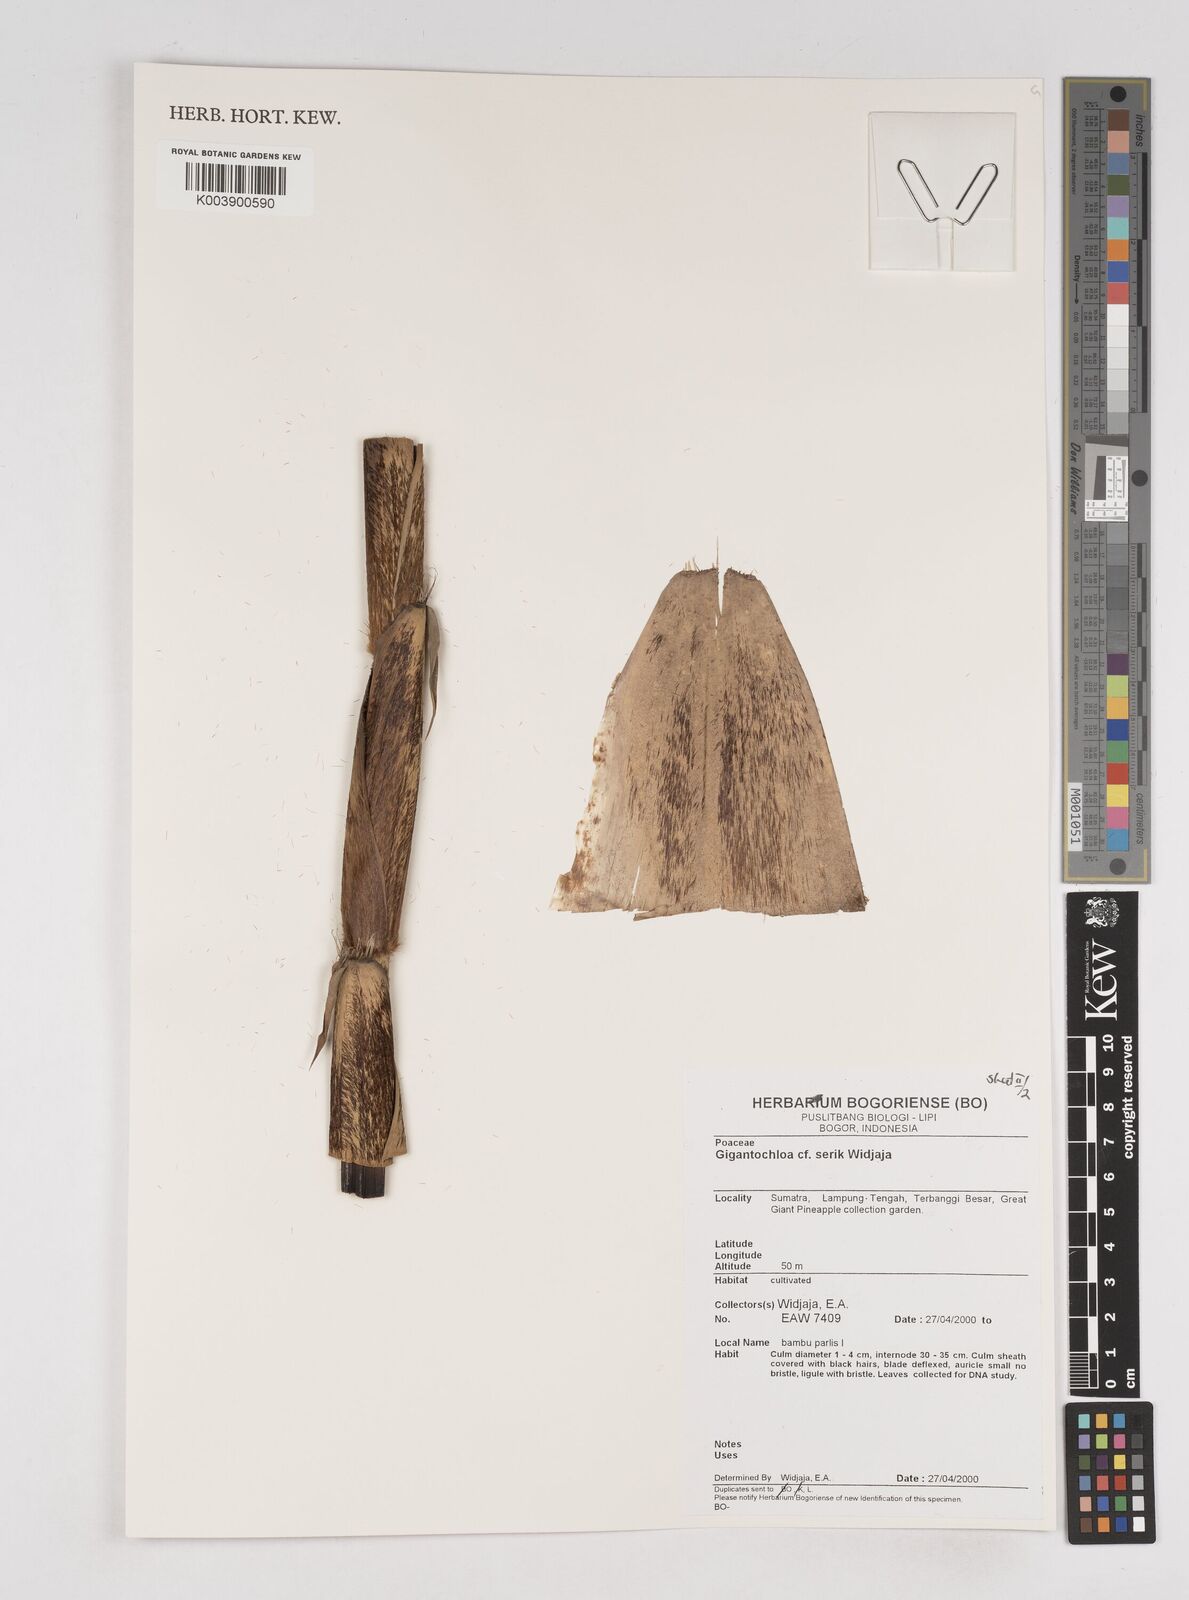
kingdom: Plantae
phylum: Tracheophyta
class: Liliopsida
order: Poales
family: Poaceae
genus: Gigantochloa
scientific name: Gigantochloa serik
